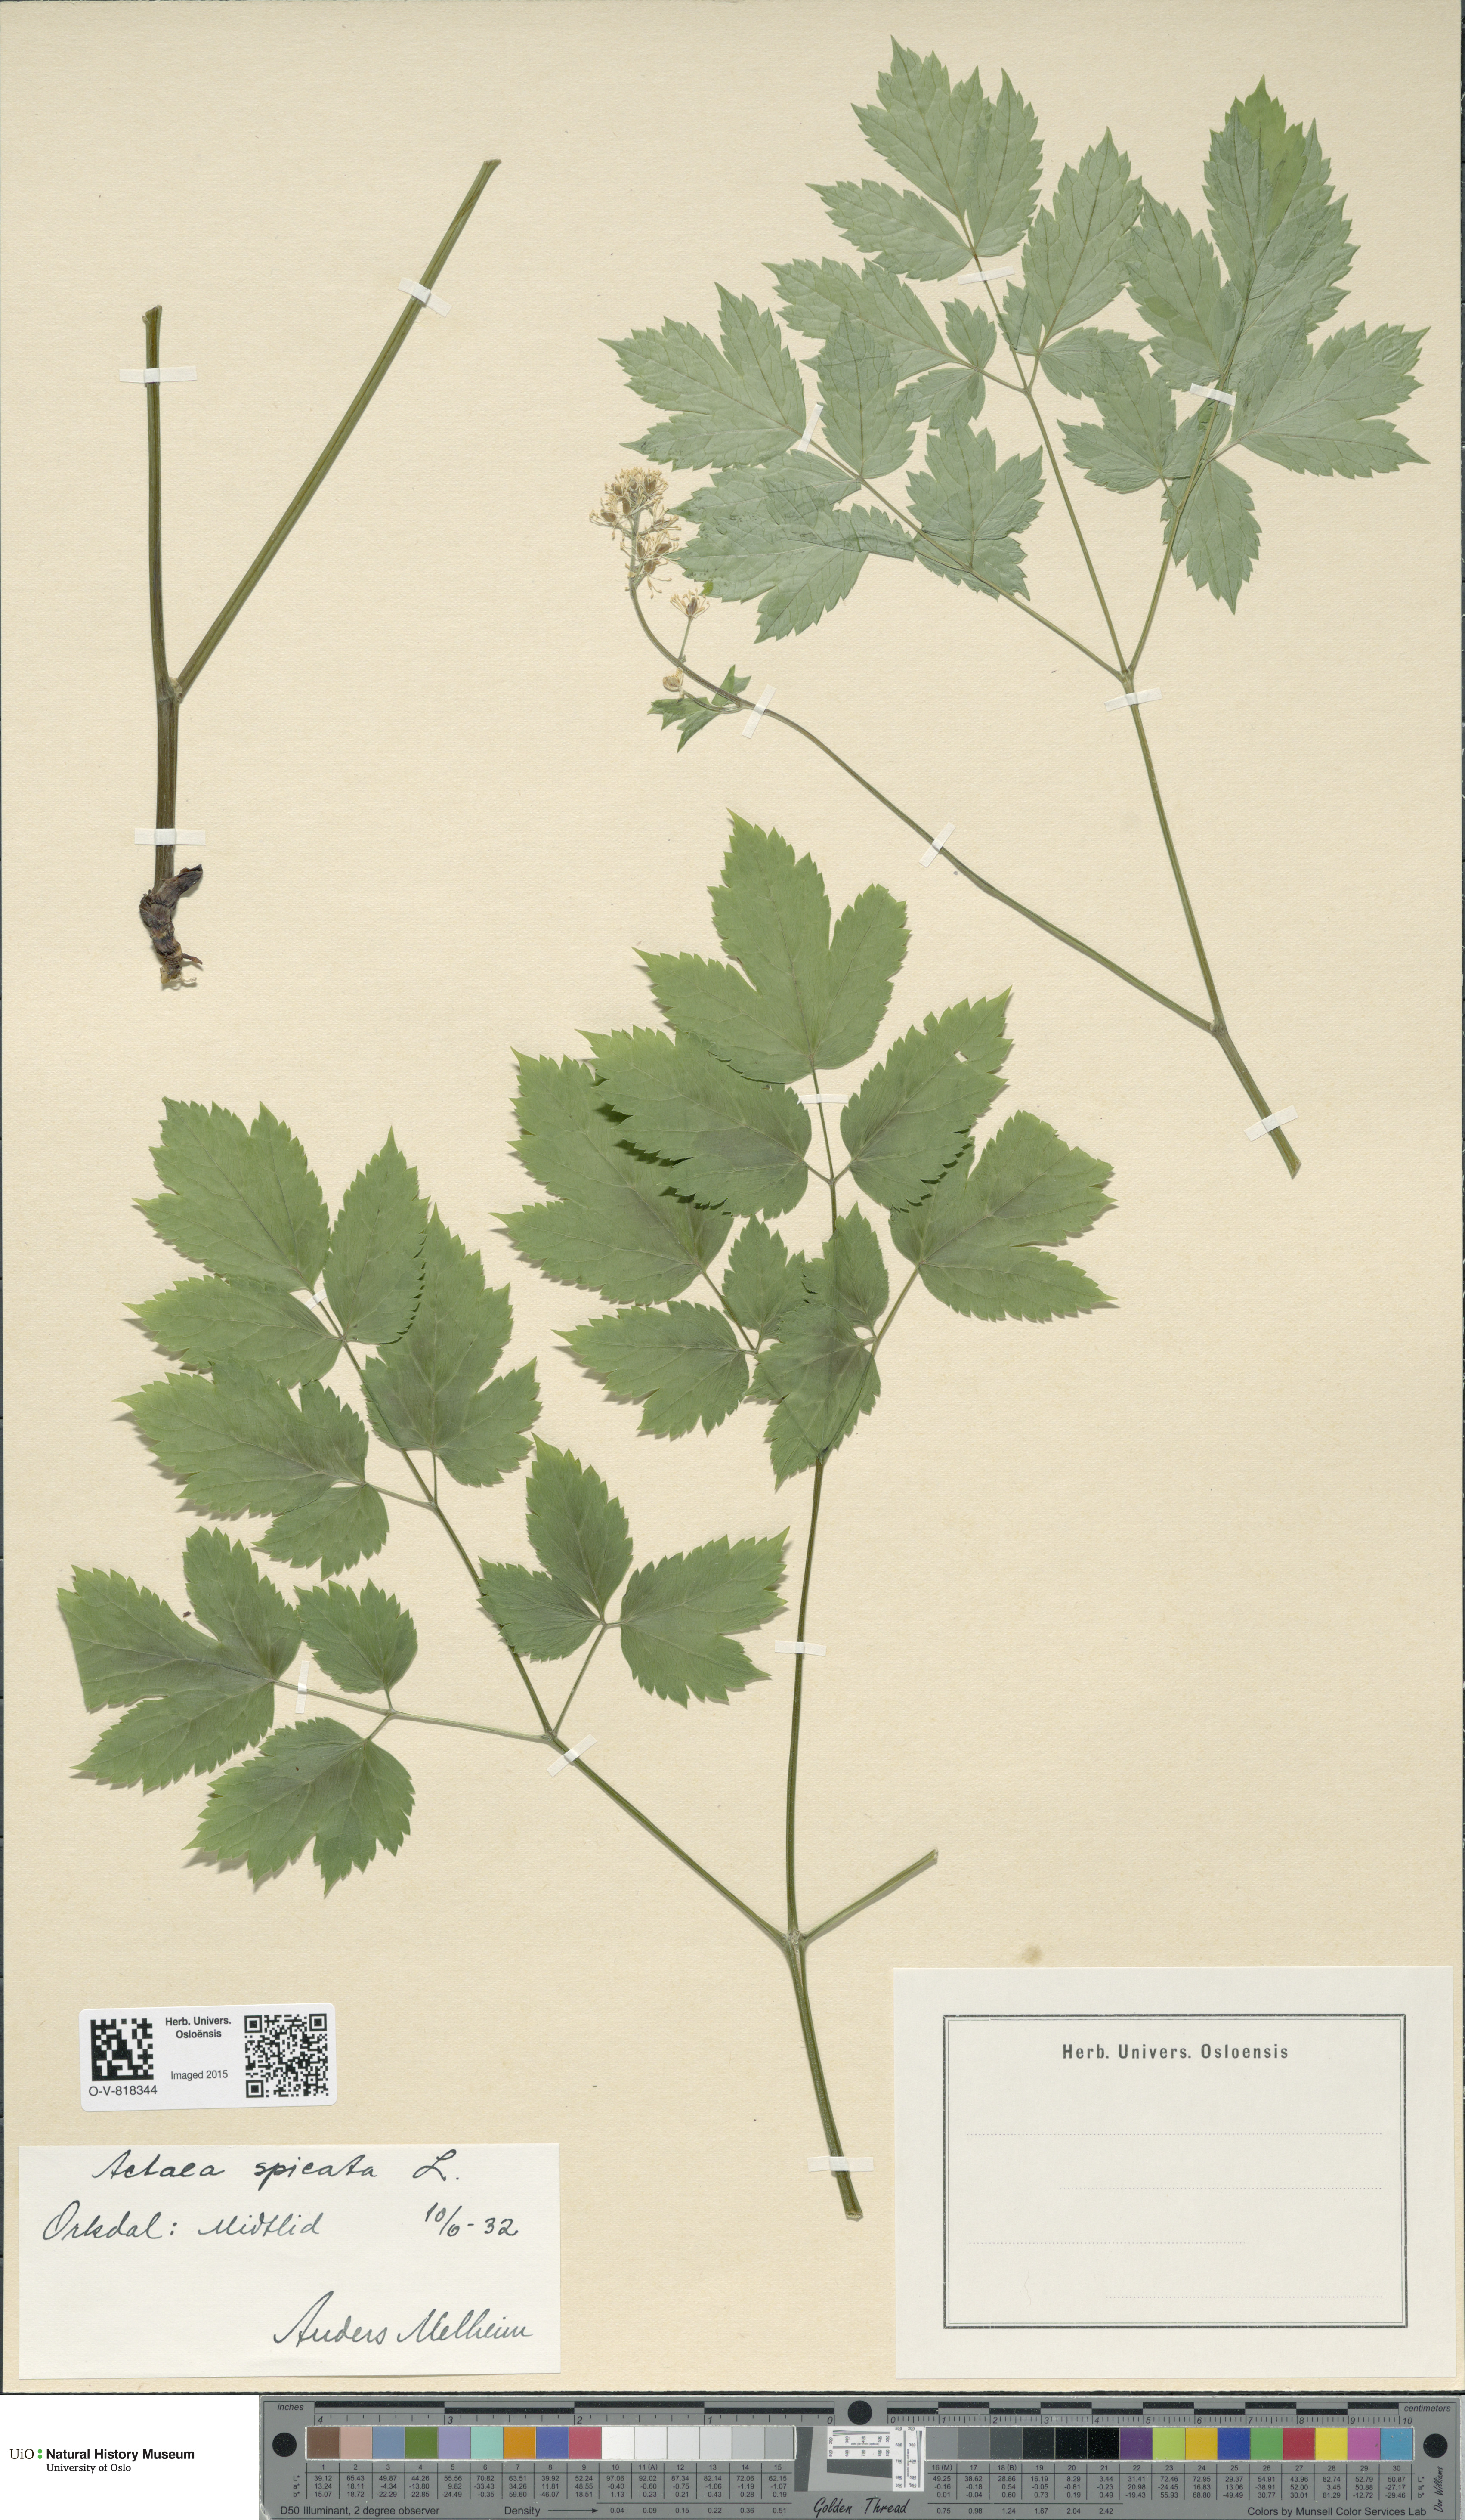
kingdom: Plantae
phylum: Tracheophyta
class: Magnoliopsida
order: Ranunculales
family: Ranunculaceae
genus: Actaea
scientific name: Actaea spicata
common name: Baneberry
